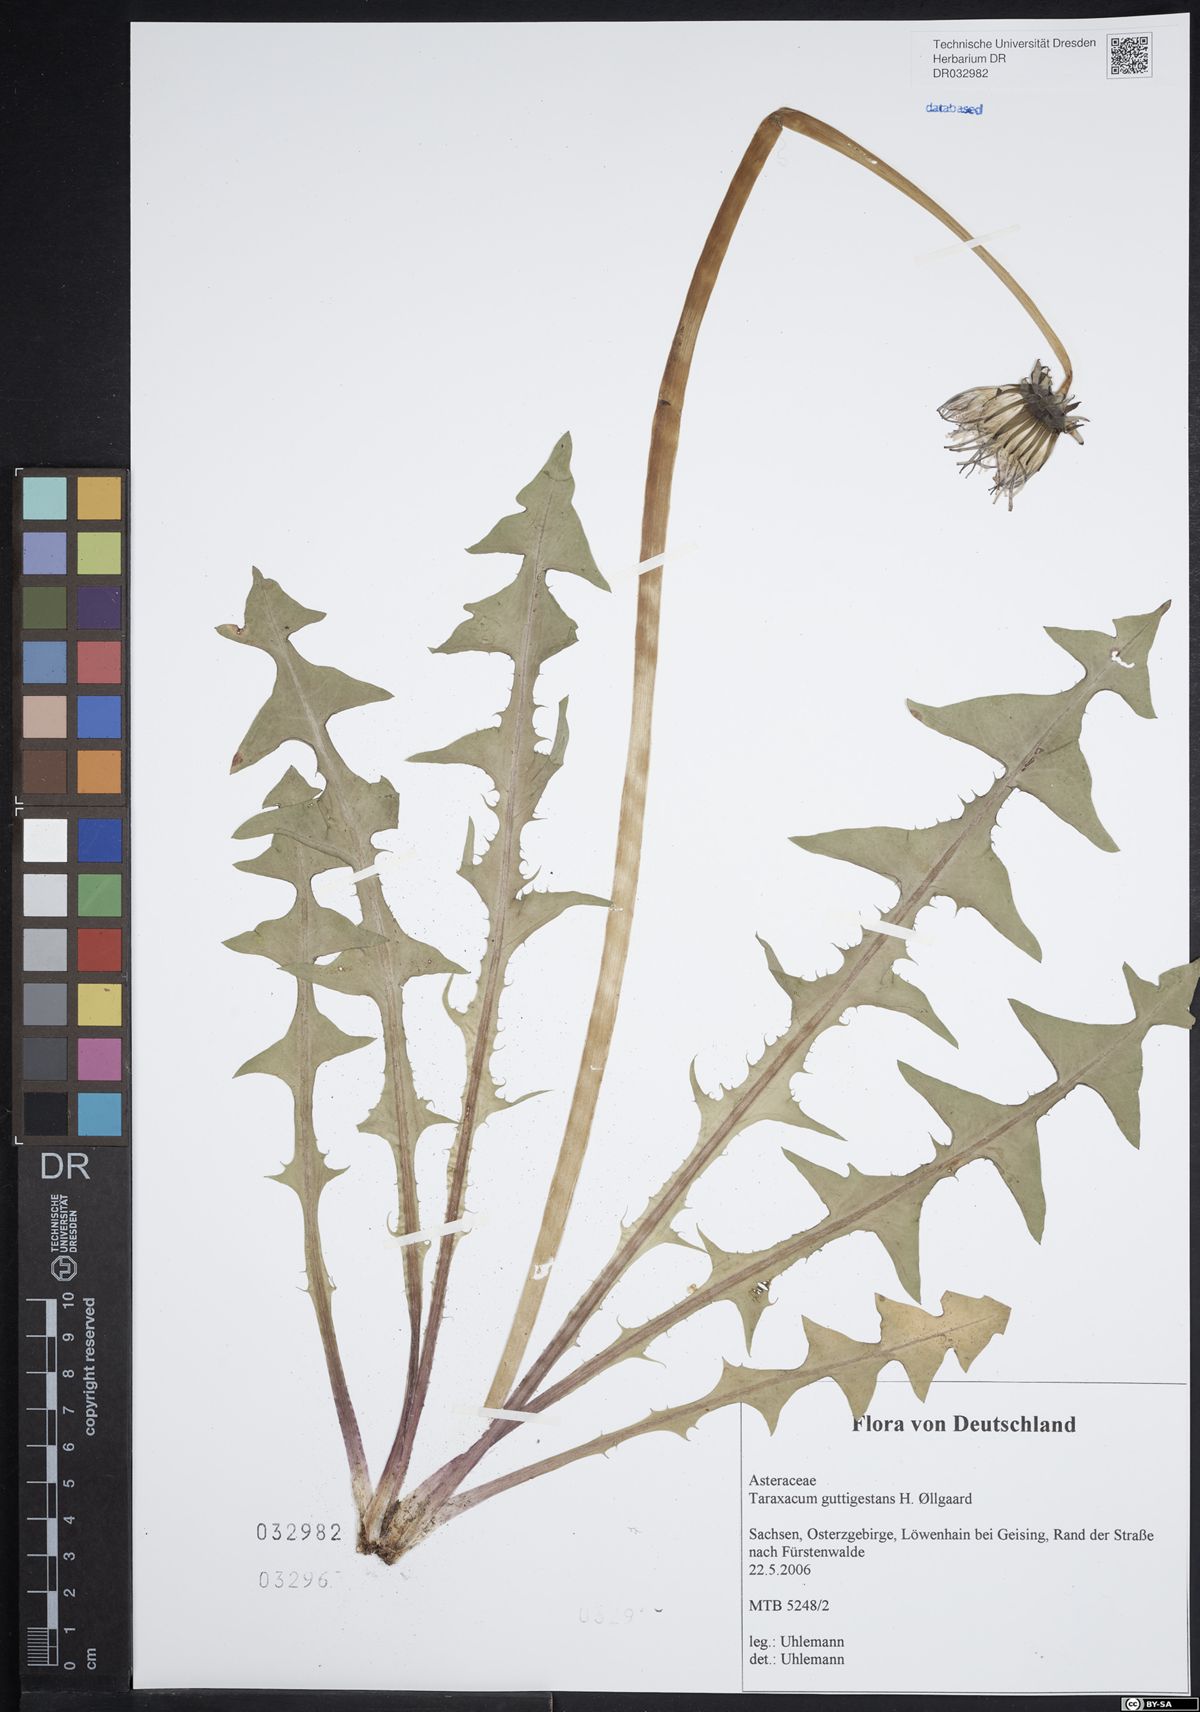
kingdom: Plantae
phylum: Tracheophyta
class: Magnoliopsida
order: Asterales
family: Asteraceae
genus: Taraxacum
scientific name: Taraxacum guttigestans
